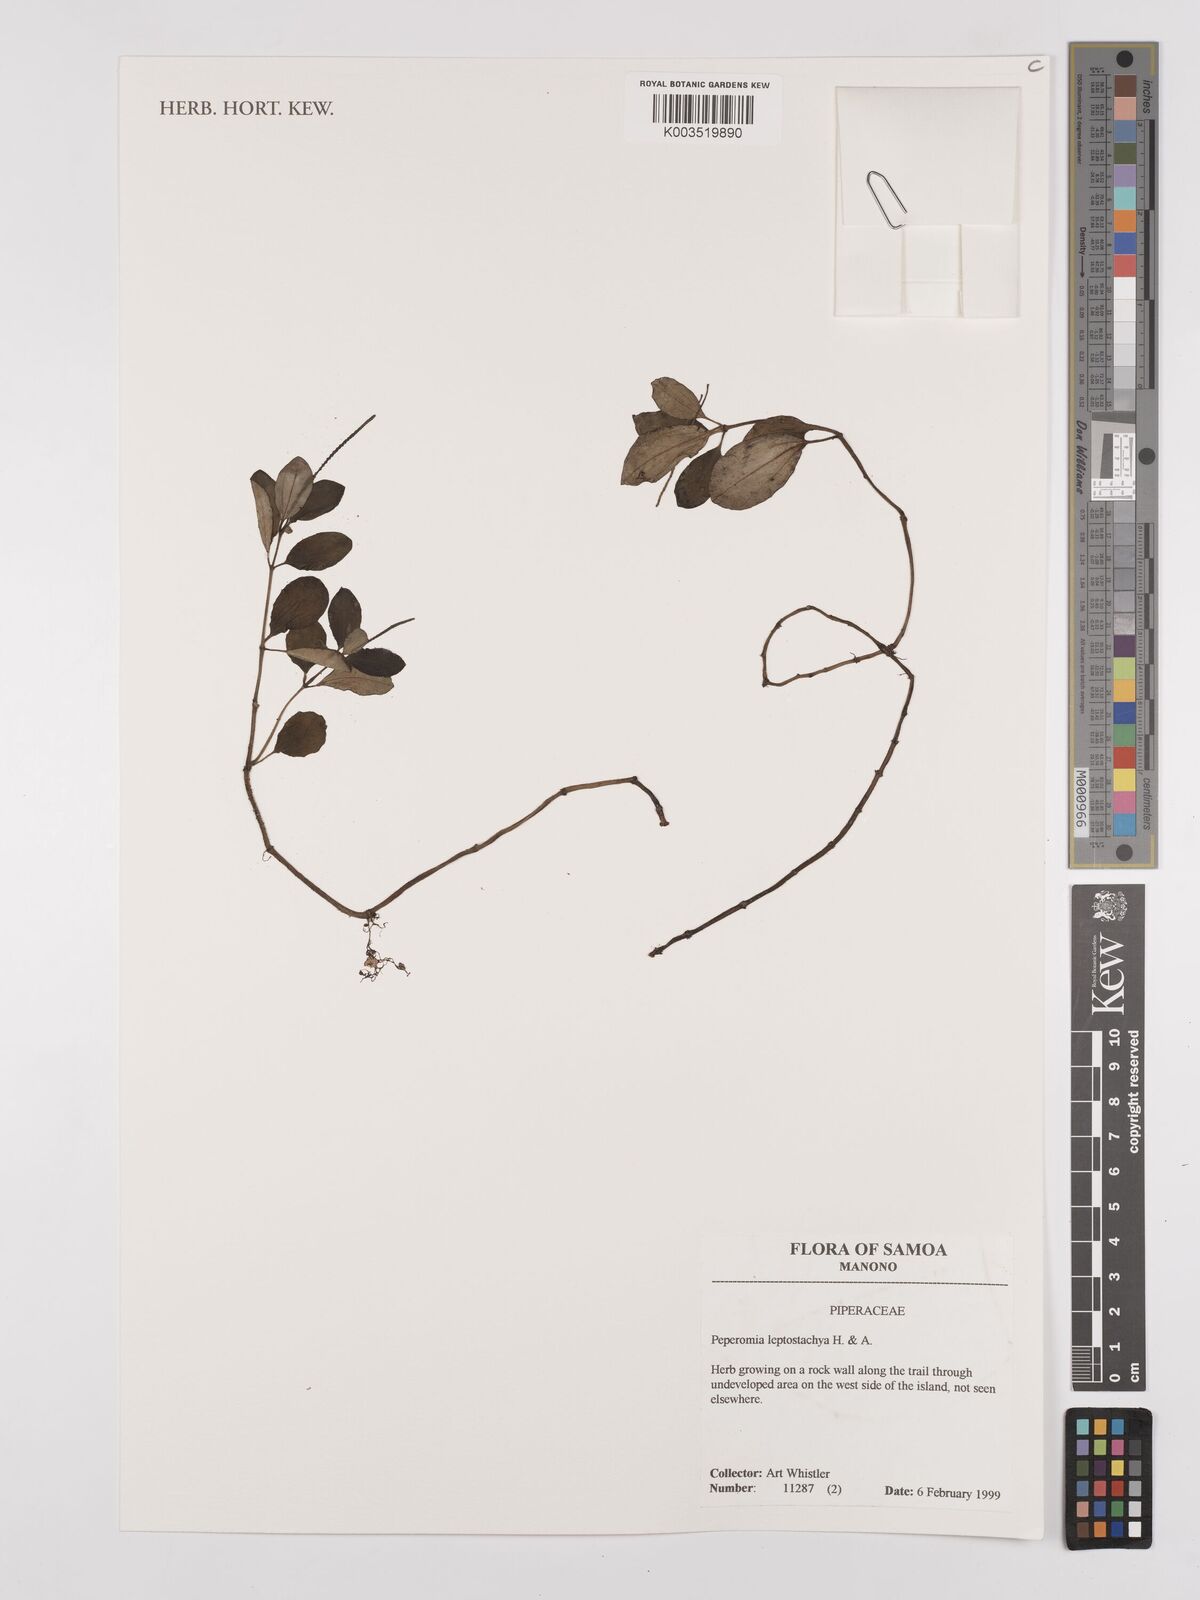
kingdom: Plantae
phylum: Tracheophyta
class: Magnoliopsida
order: Piperales
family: Piperaceae
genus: Peperomia
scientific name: Peperomia leptostachya
